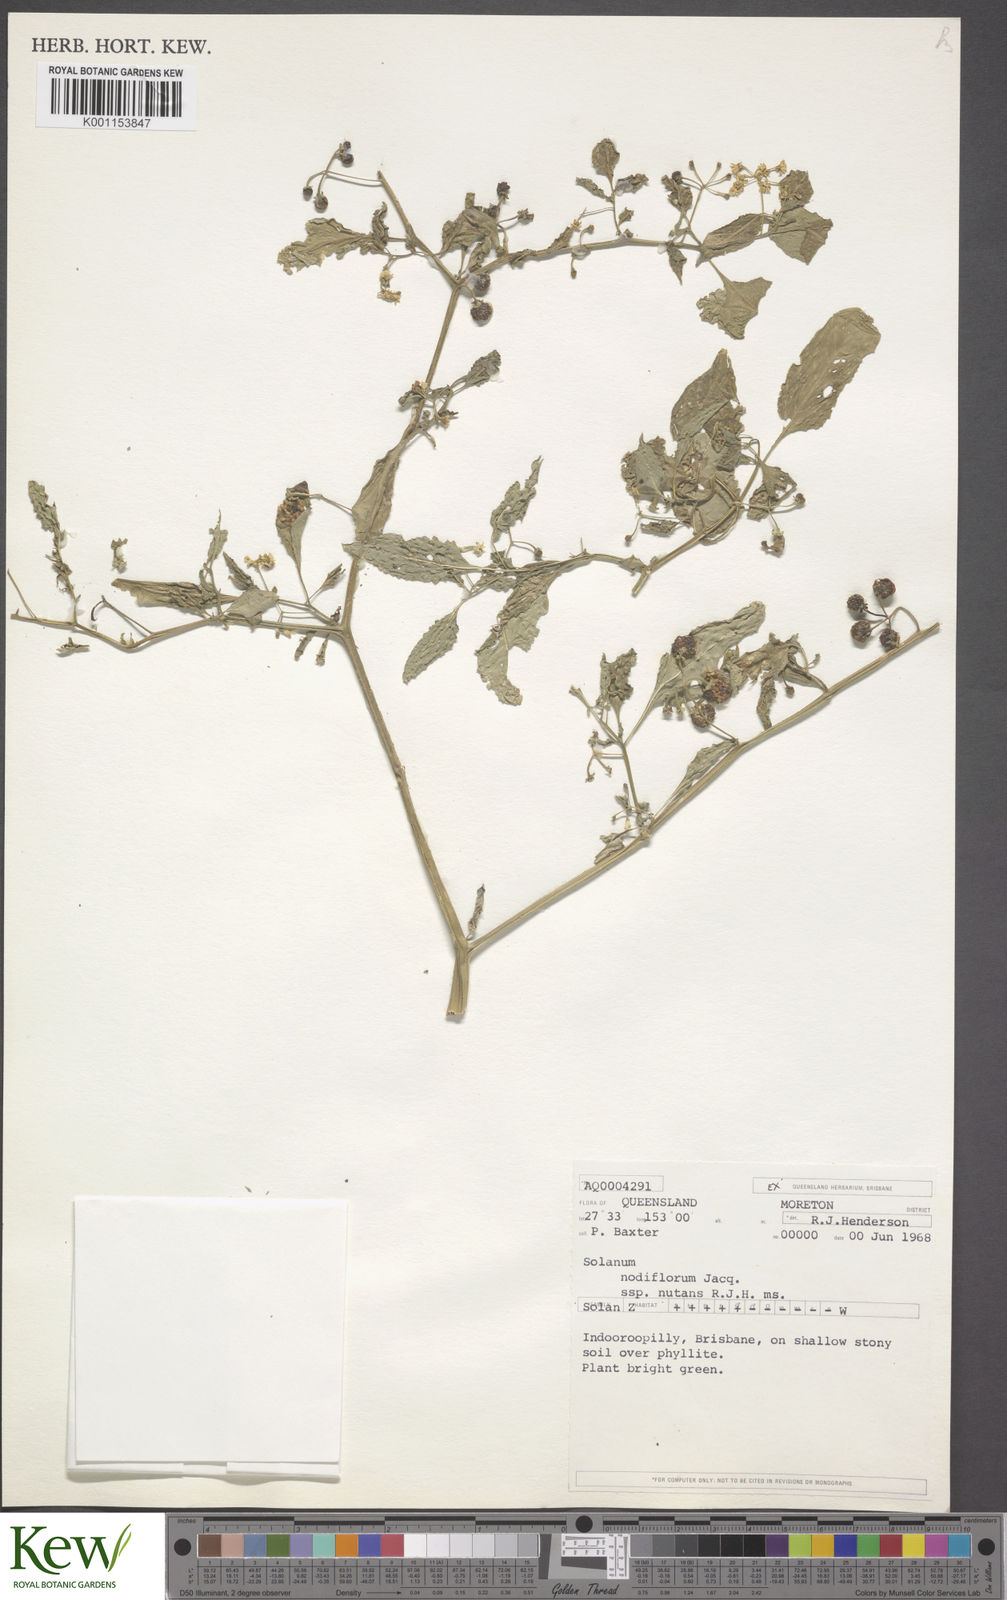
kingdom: Plantae
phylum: Tracheophyta
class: Magnoliopsida
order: Solanales
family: Solanaceae
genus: Solanum
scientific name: Solanum americanum
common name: American black nightshade
